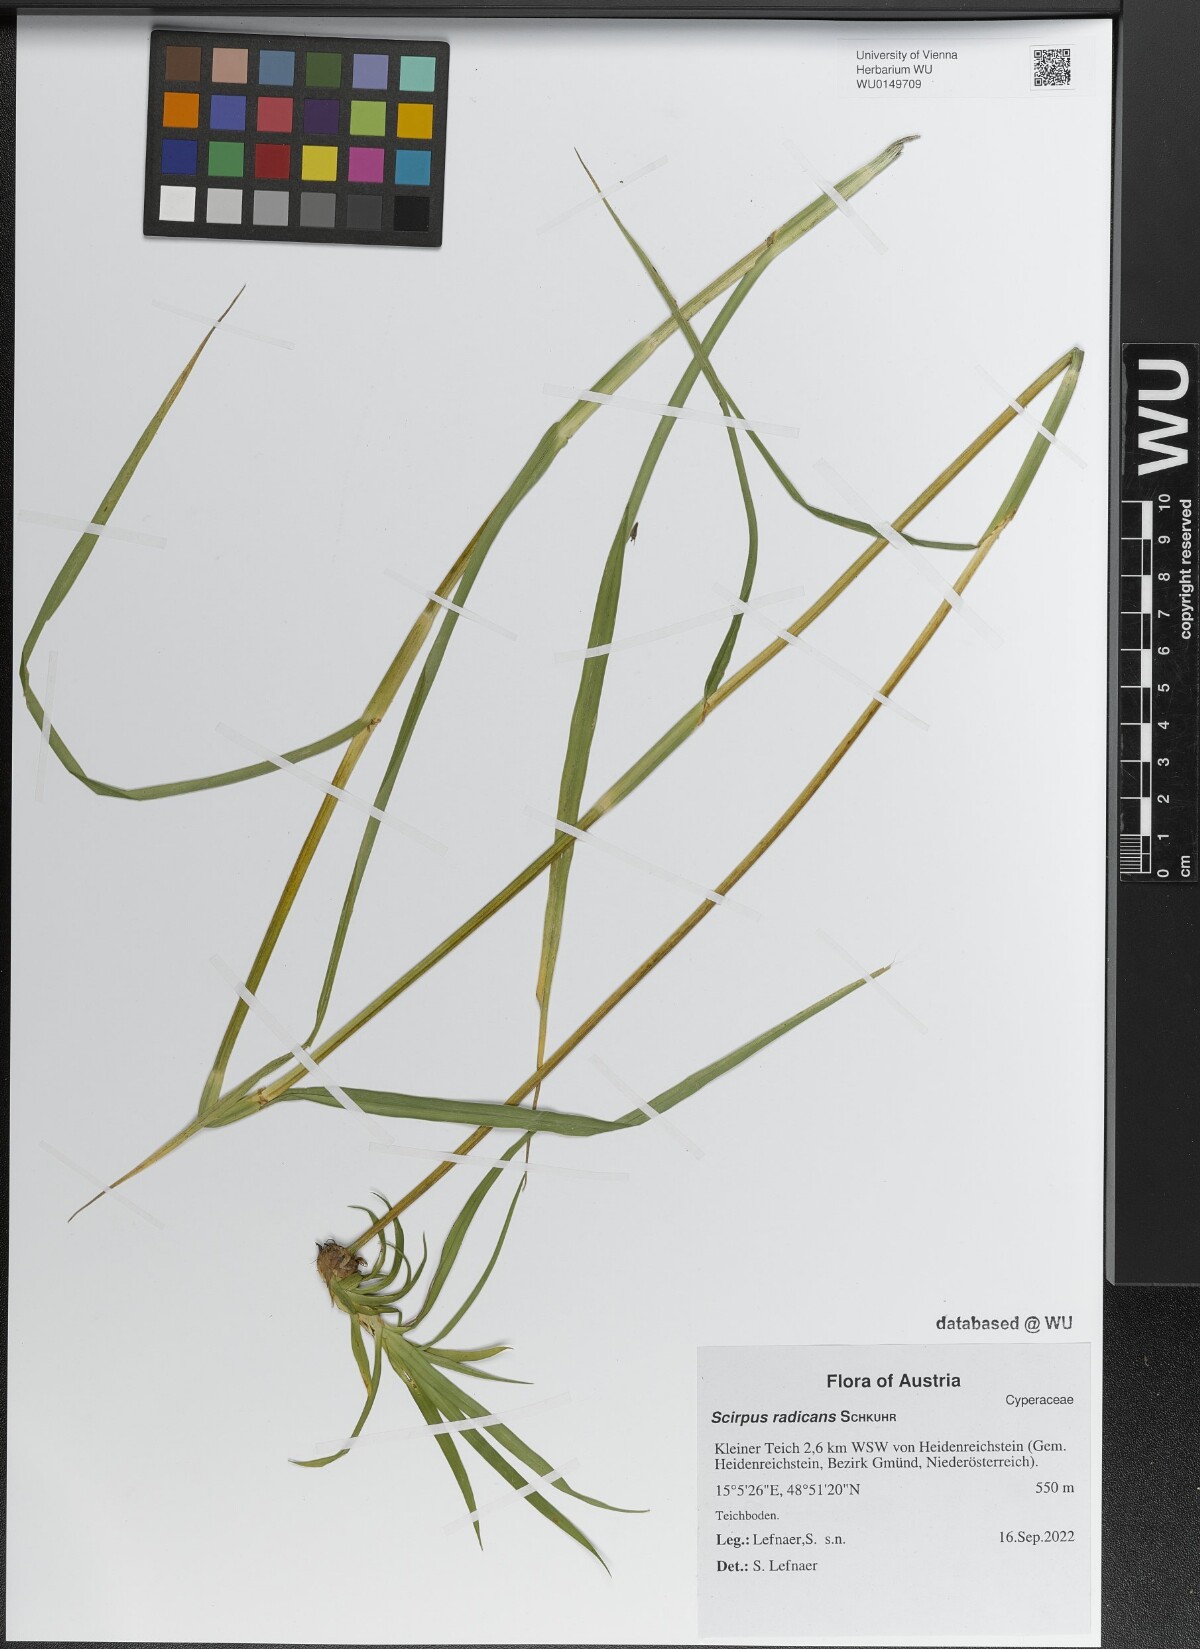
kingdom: Plantae
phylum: Tracheophyta
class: Liliopsida
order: Poales
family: Cyperaceae
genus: Scirpus
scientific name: Scirpus radicans
